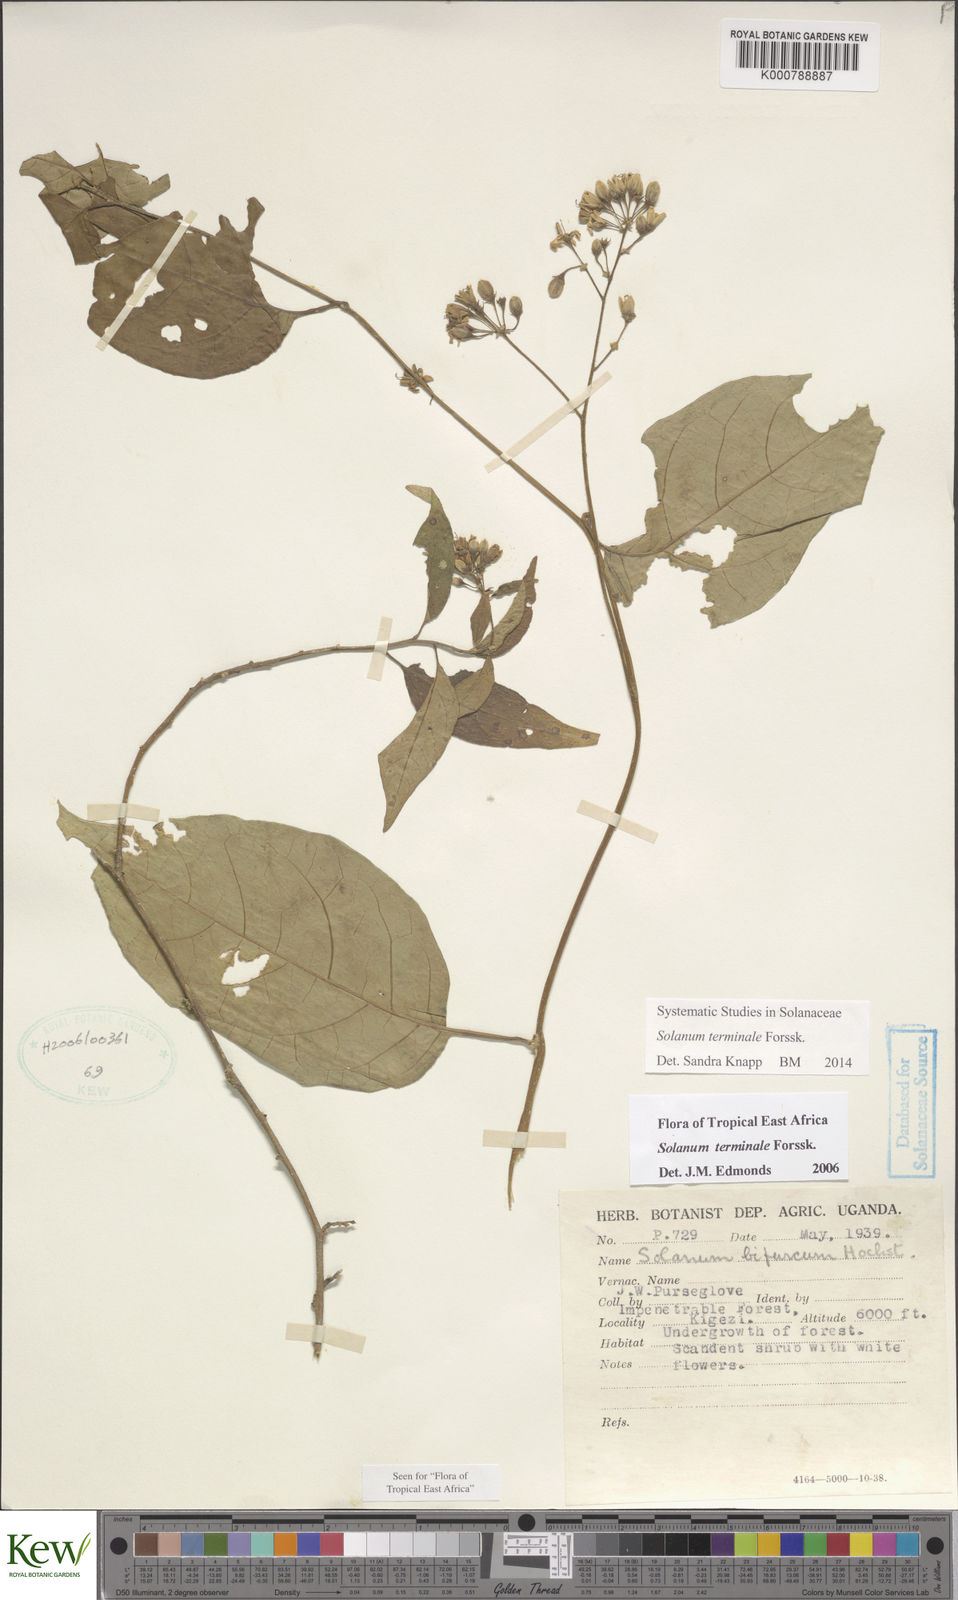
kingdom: Plantae
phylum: Tracheophyta
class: Magnoliopsida
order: Solanales
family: Solanaceae
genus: Solanum
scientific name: Solanum terminale
